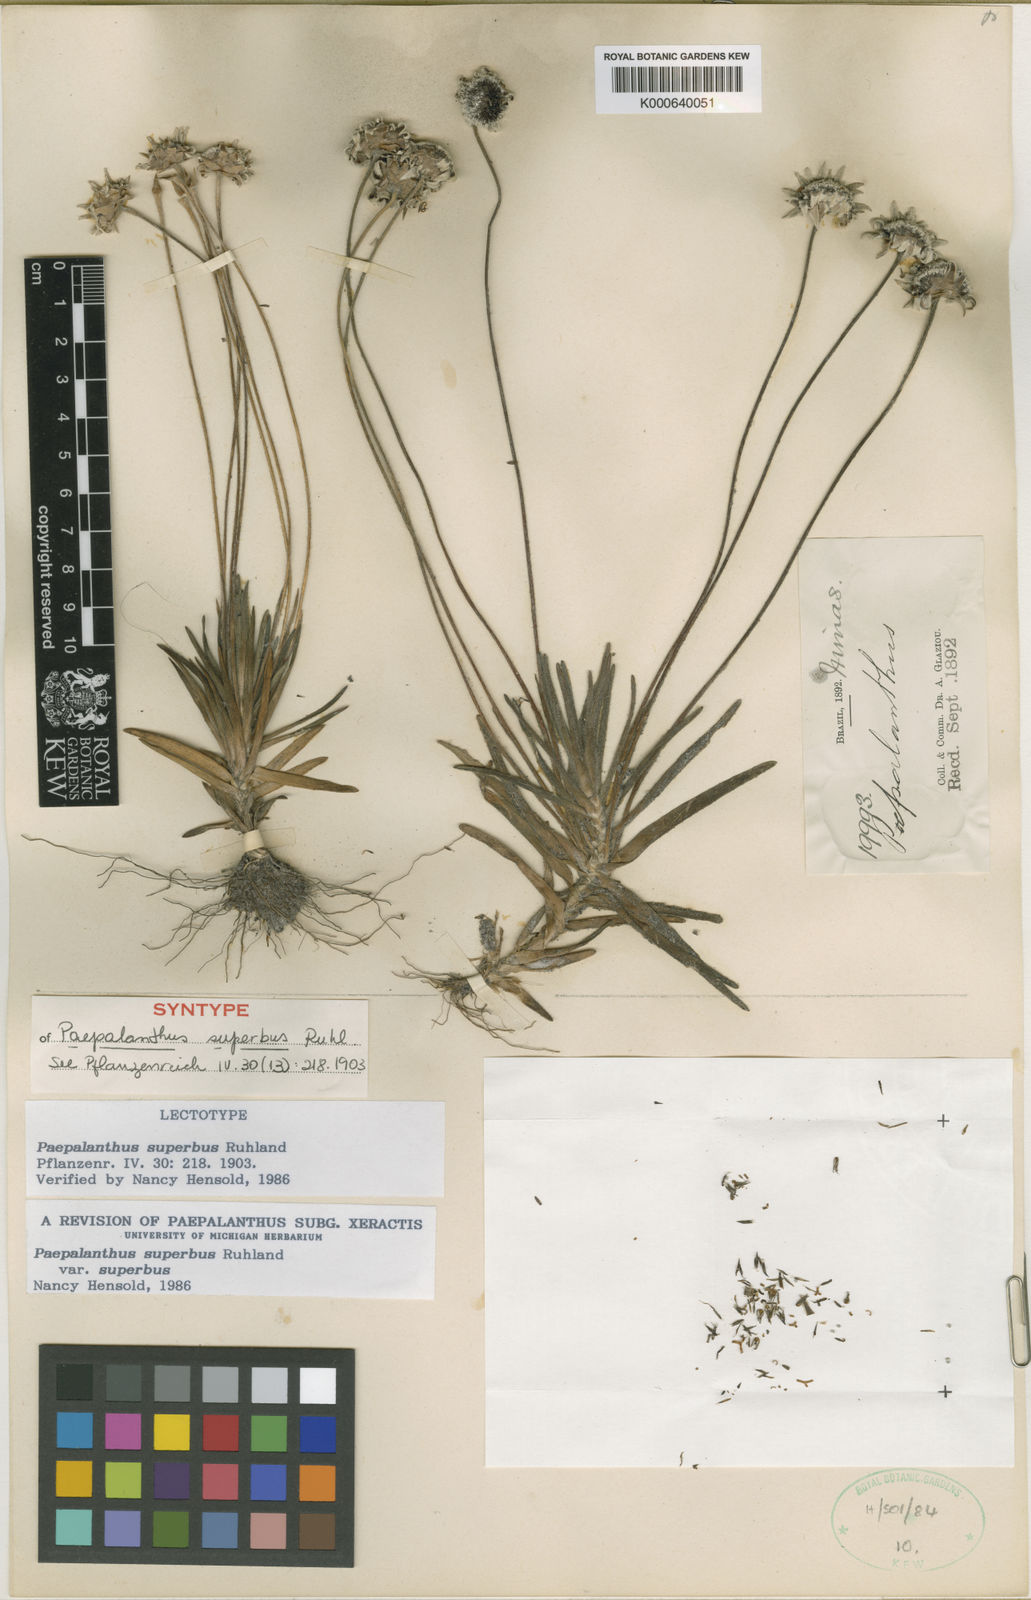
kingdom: Plantae
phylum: Tracheophyta
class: Liliopsida
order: Poales
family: Eriocaulaceae
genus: Paepalanthus
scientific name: Paepalanthus superbus
